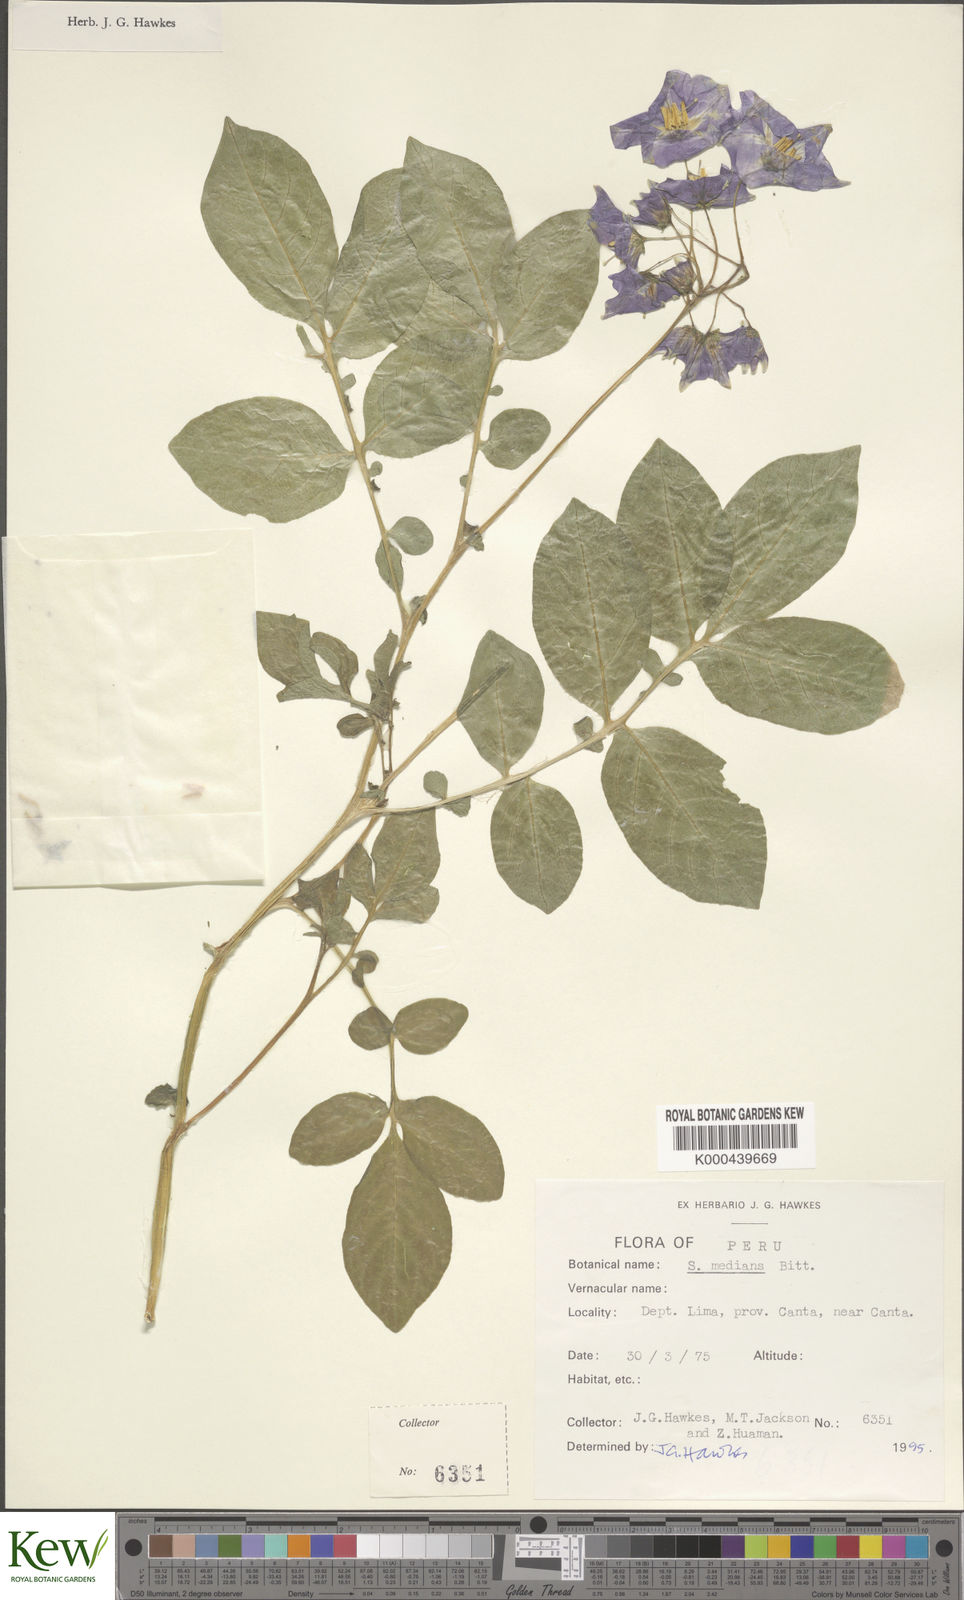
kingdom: Plantae
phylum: Tracheophyta
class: Magnoliopsida
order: Solanales
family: Solanaceae
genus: Solanum
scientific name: Solanum medians
